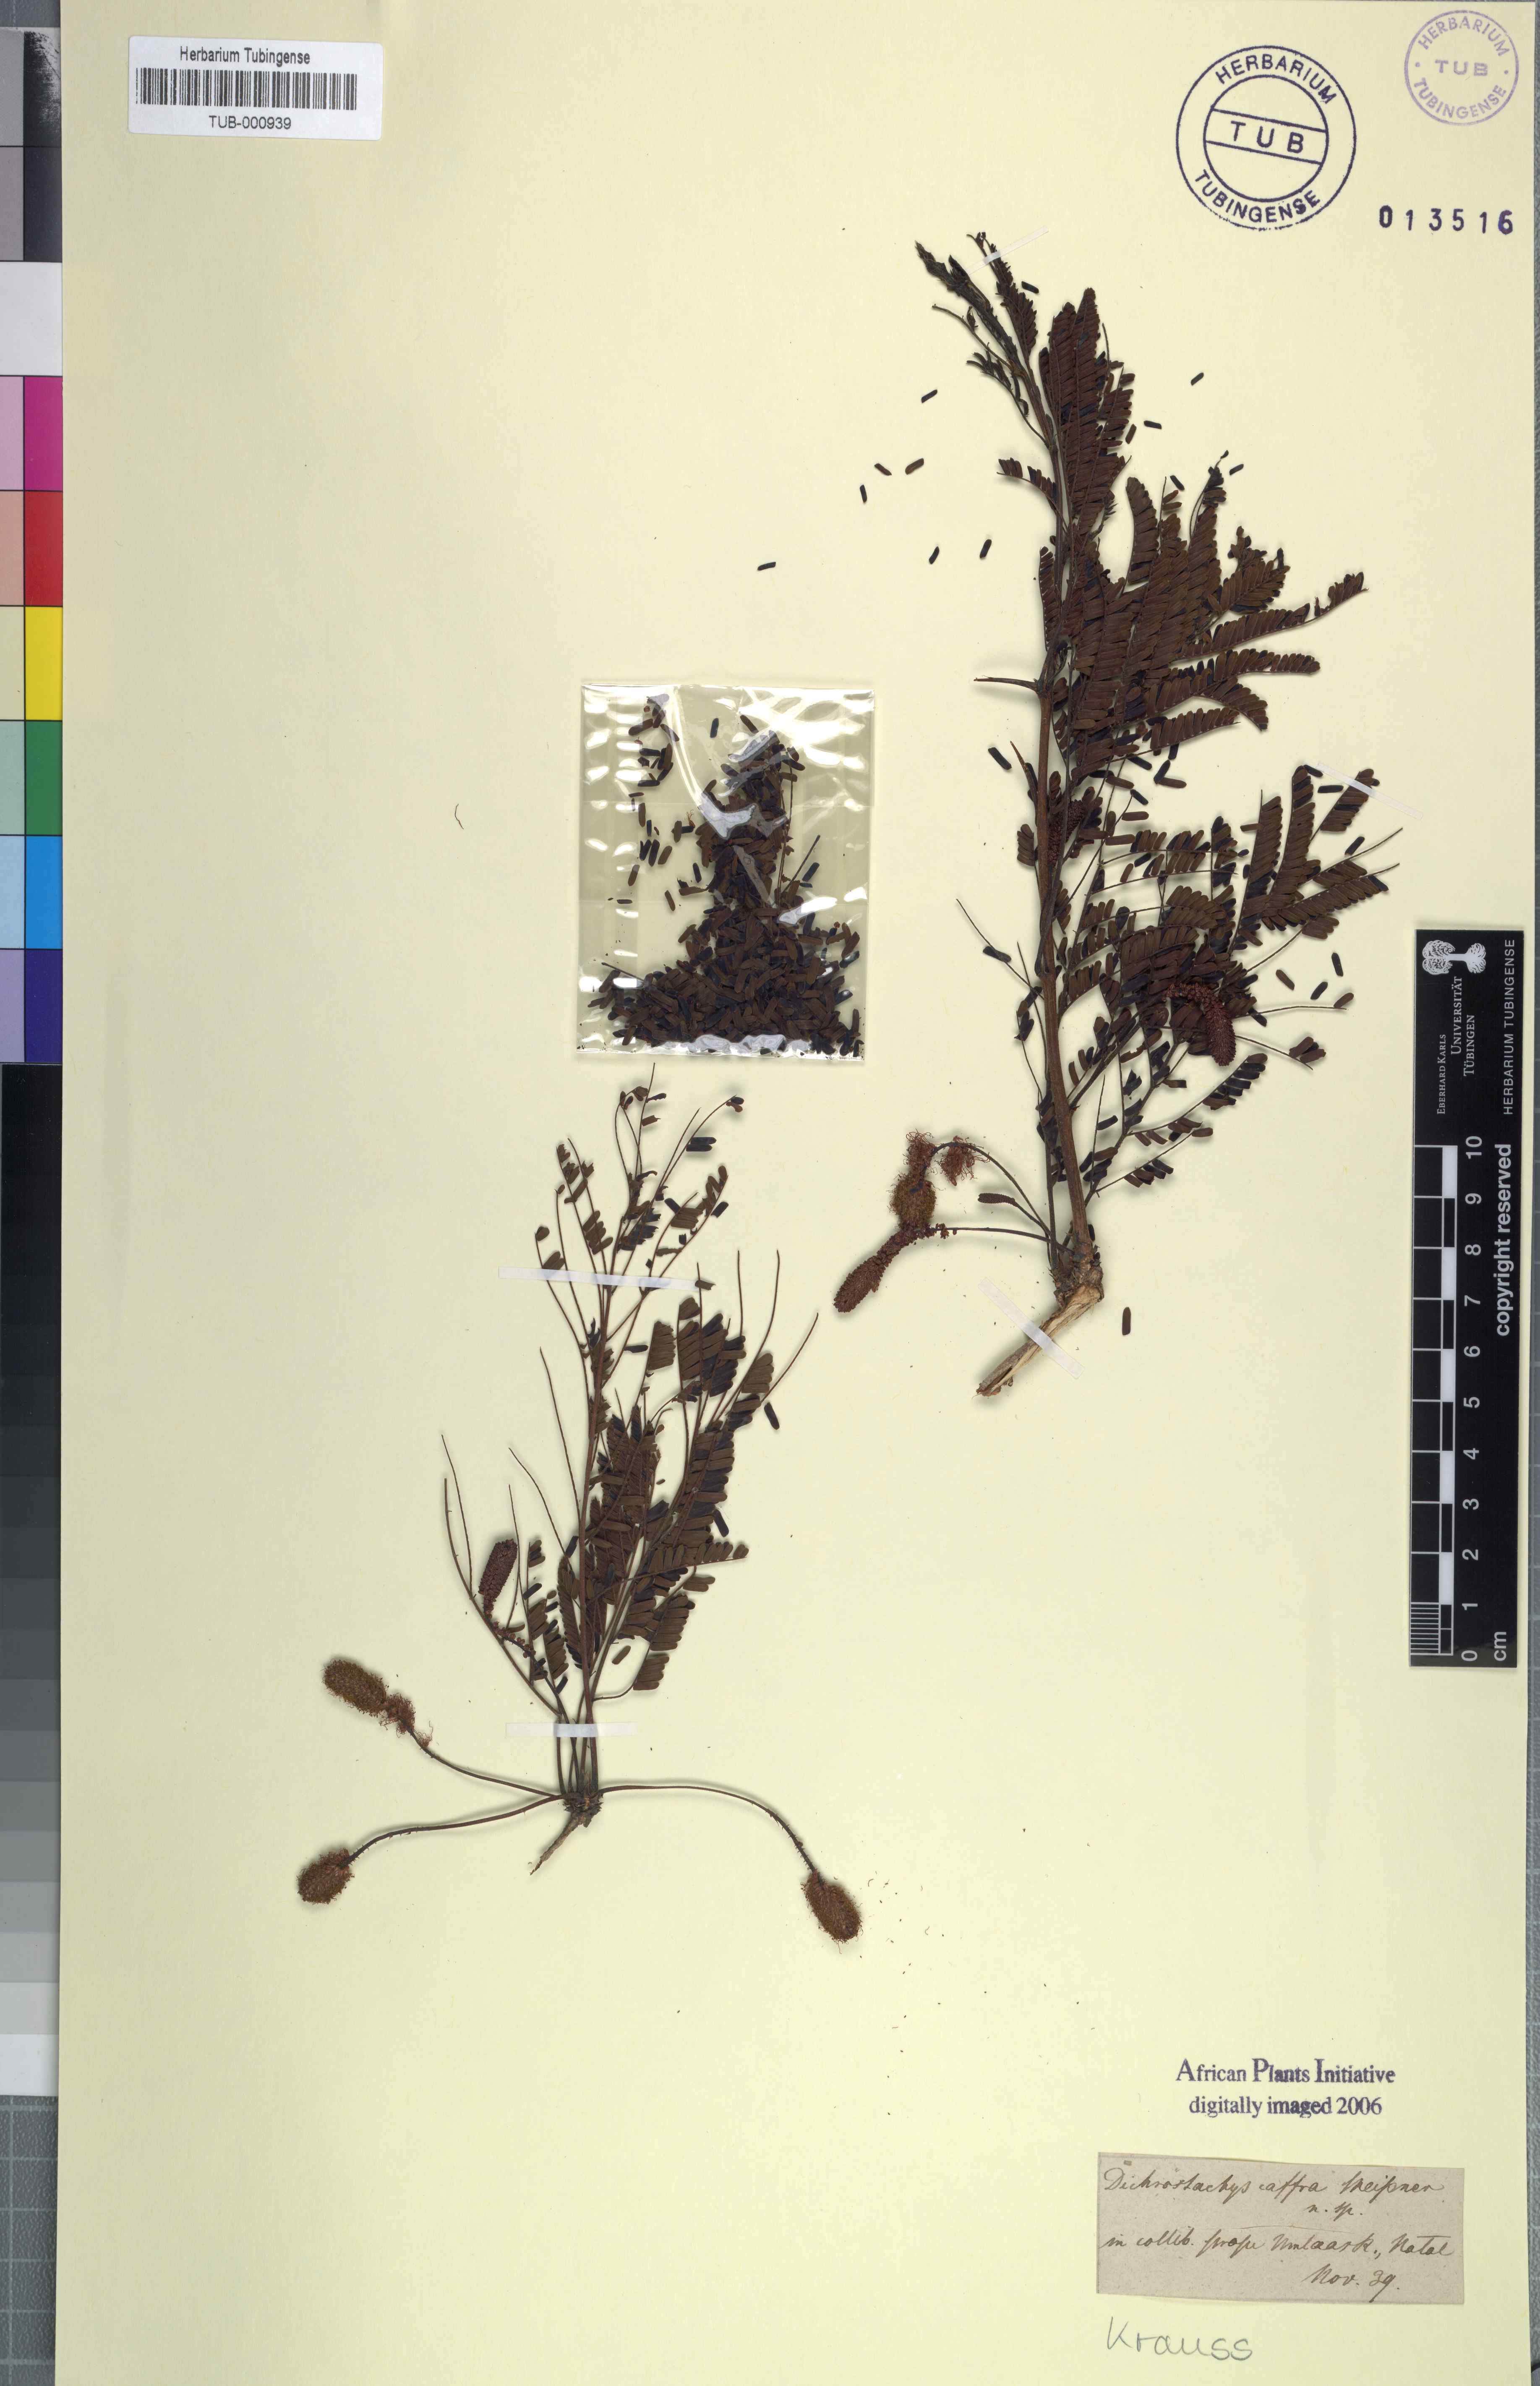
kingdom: Plantae
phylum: Tracheophyta
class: Magnoliopsida
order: Fabales
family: Fabaceae
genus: Dichrostachys
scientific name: Dichrostachys cinerea
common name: Sicklebush
